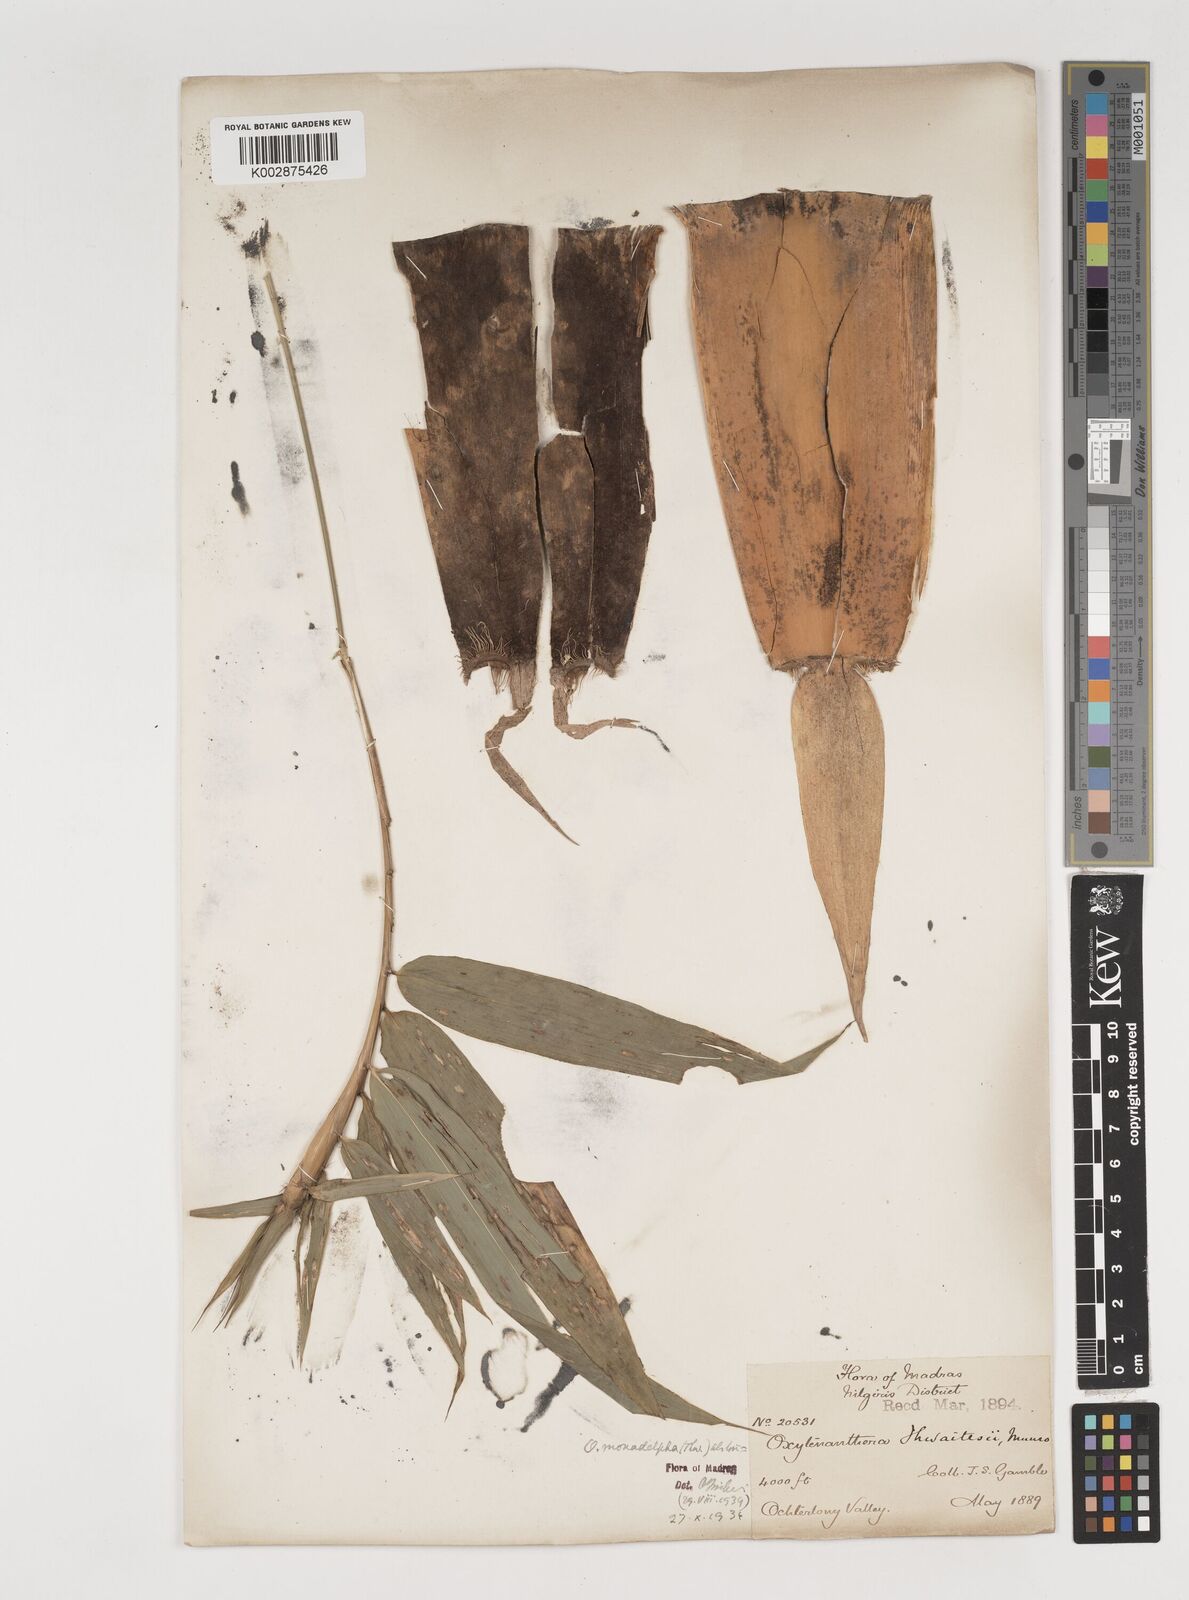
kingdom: Plantae
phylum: Tracheophyta
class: Liliopsida
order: Poales
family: Poaceae
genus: Pseudoxytenanthera
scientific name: Pseudoxytenanthera monadelpha
